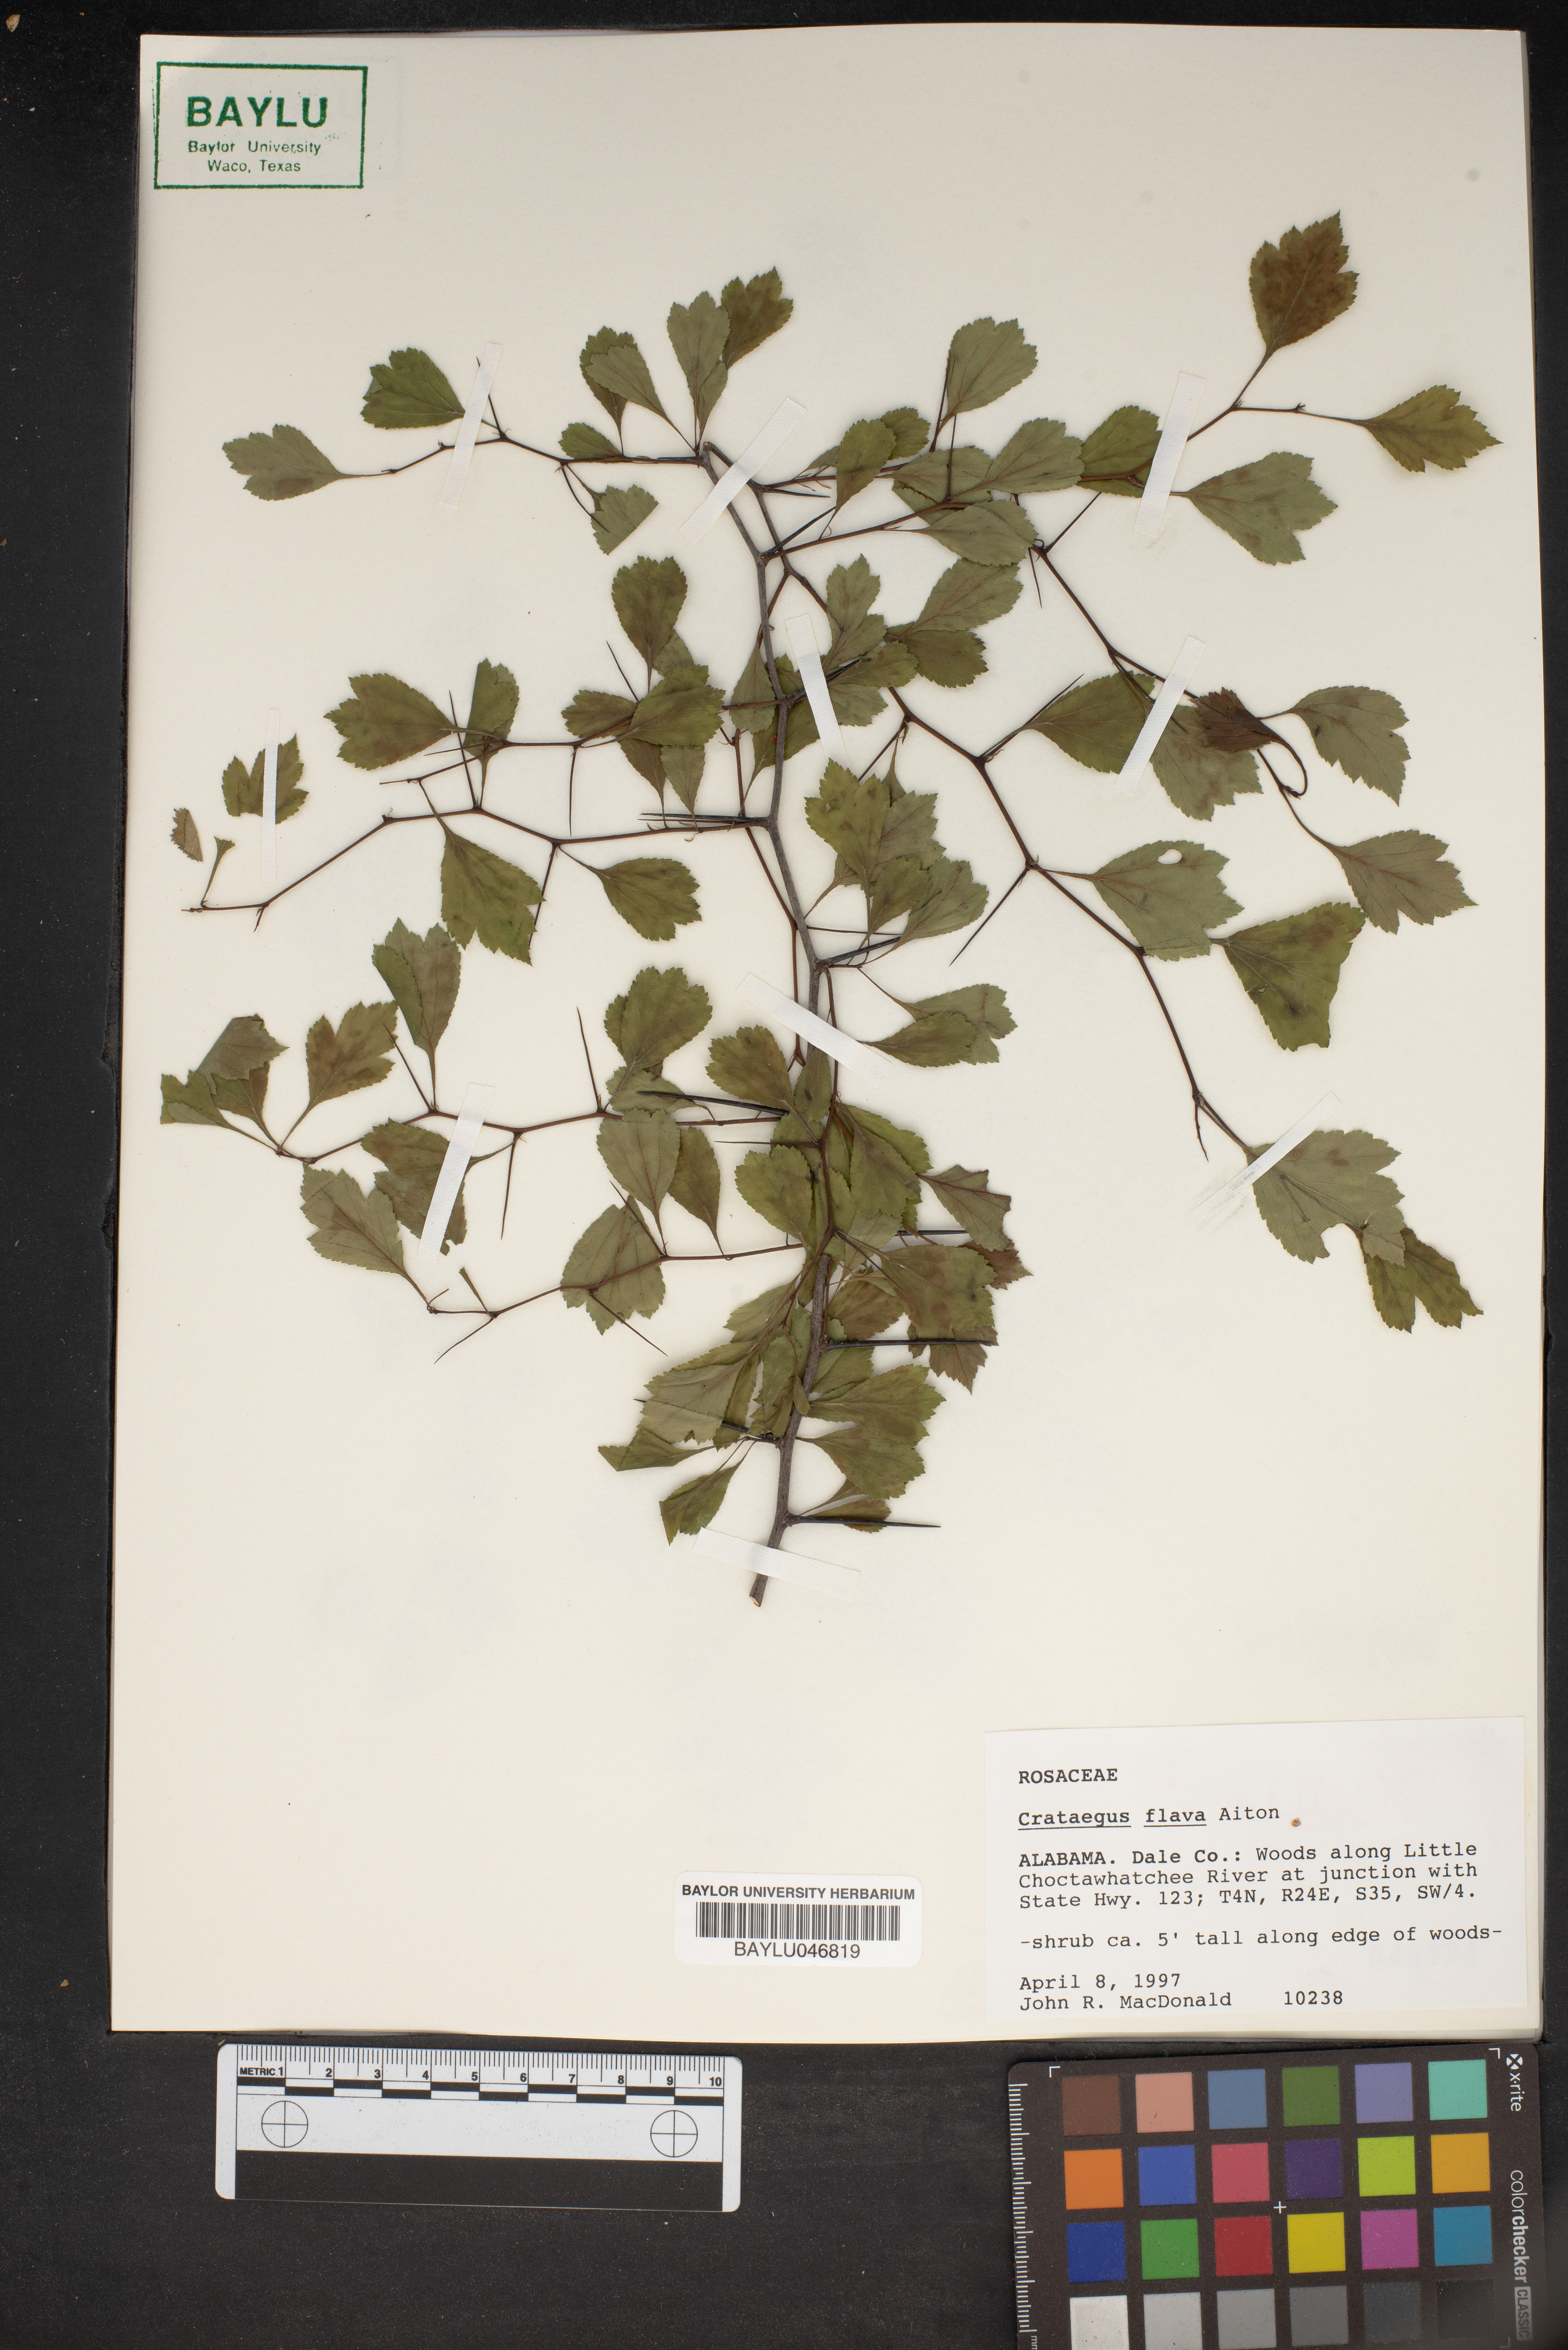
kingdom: Plantae
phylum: Tracheophyta
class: Magnoliopsida
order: Rosales
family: Rosaceae
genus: Crataegus
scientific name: Crataegus flava
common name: Yellow hawthorn
